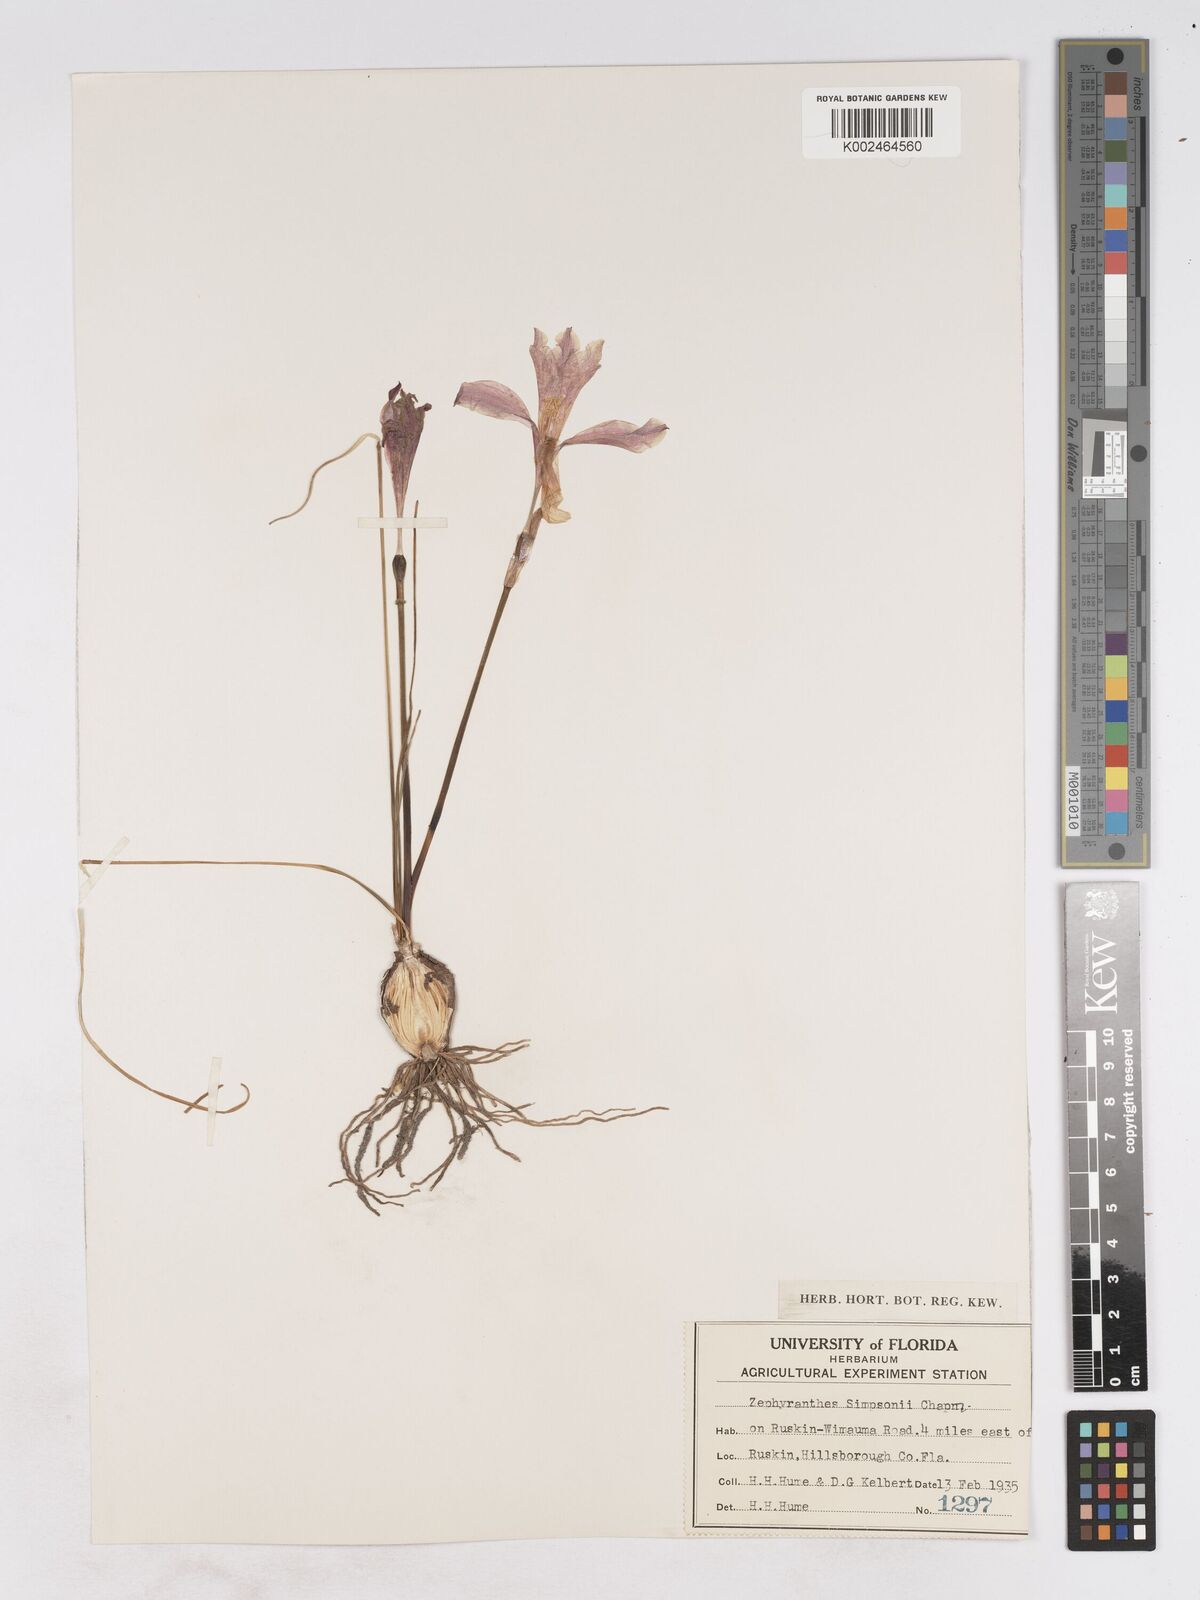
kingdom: Plantae
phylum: Tracheophyta
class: Liliopsida
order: Asparagales
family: Amaryllidaceae
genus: Zephyranthes
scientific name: Zephyranthes simpsonii
